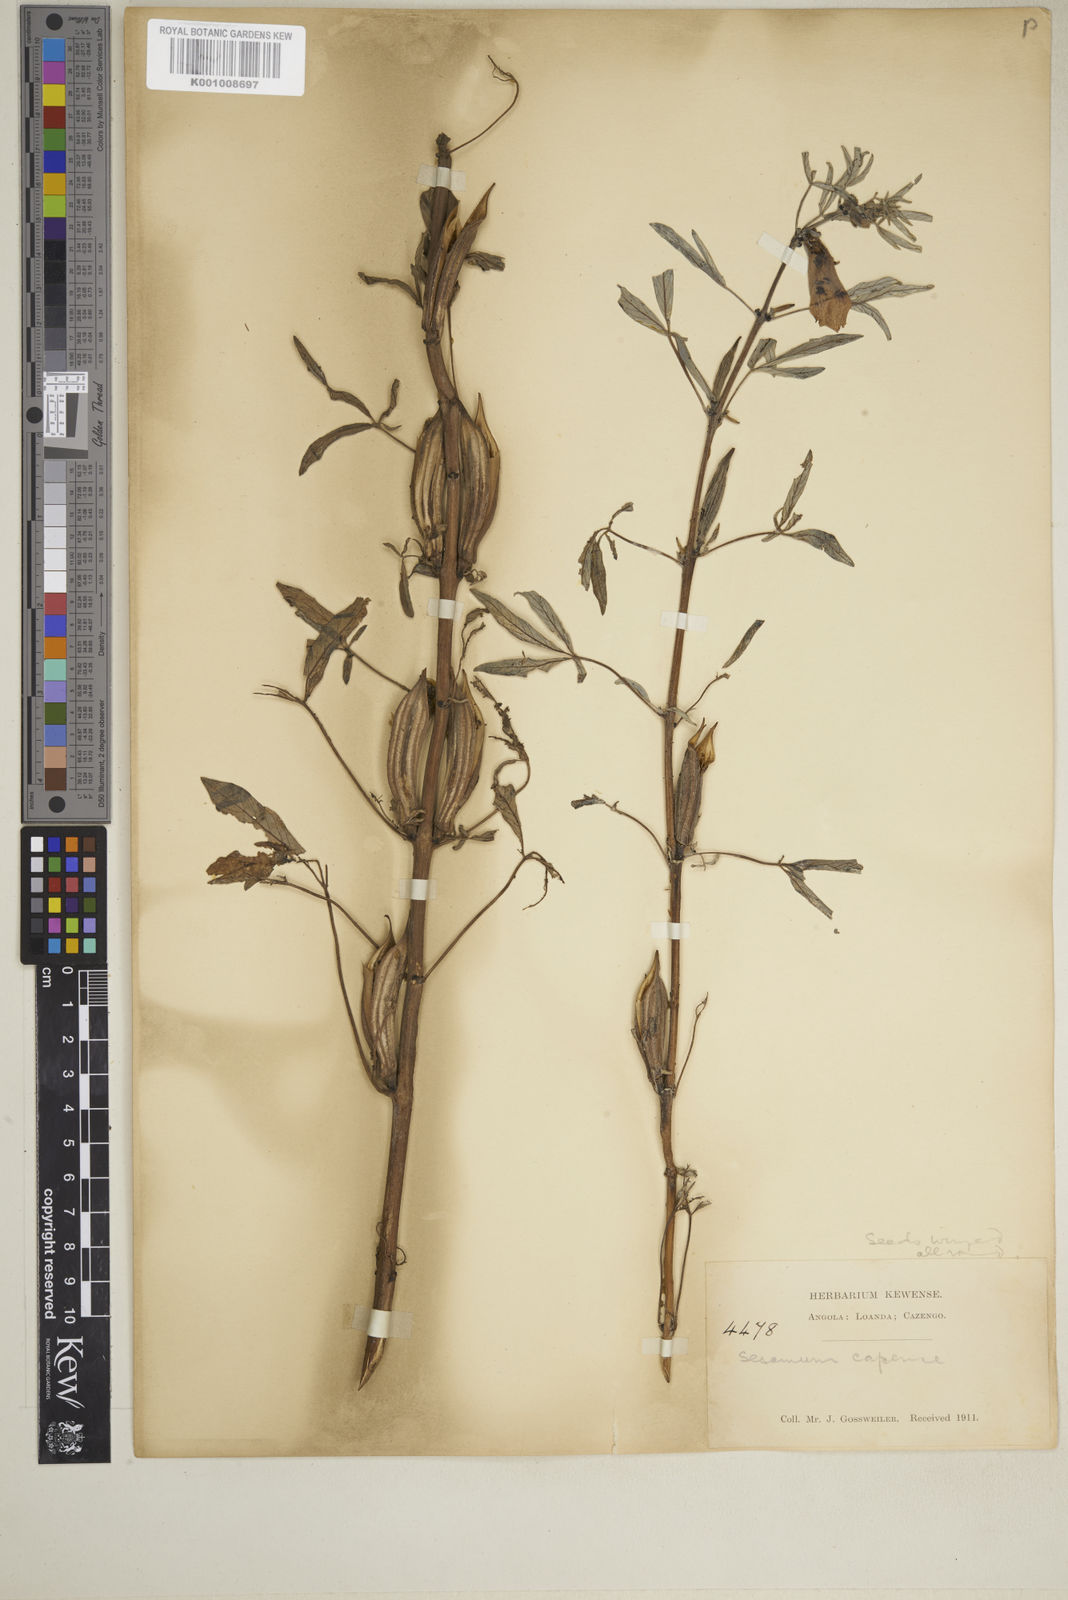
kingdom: Plantae
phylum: Tracheophyta
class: Magnoliopsida
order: Lamiales
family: Pedaliaceae
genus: Sesamum
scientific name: Sesamum capense
